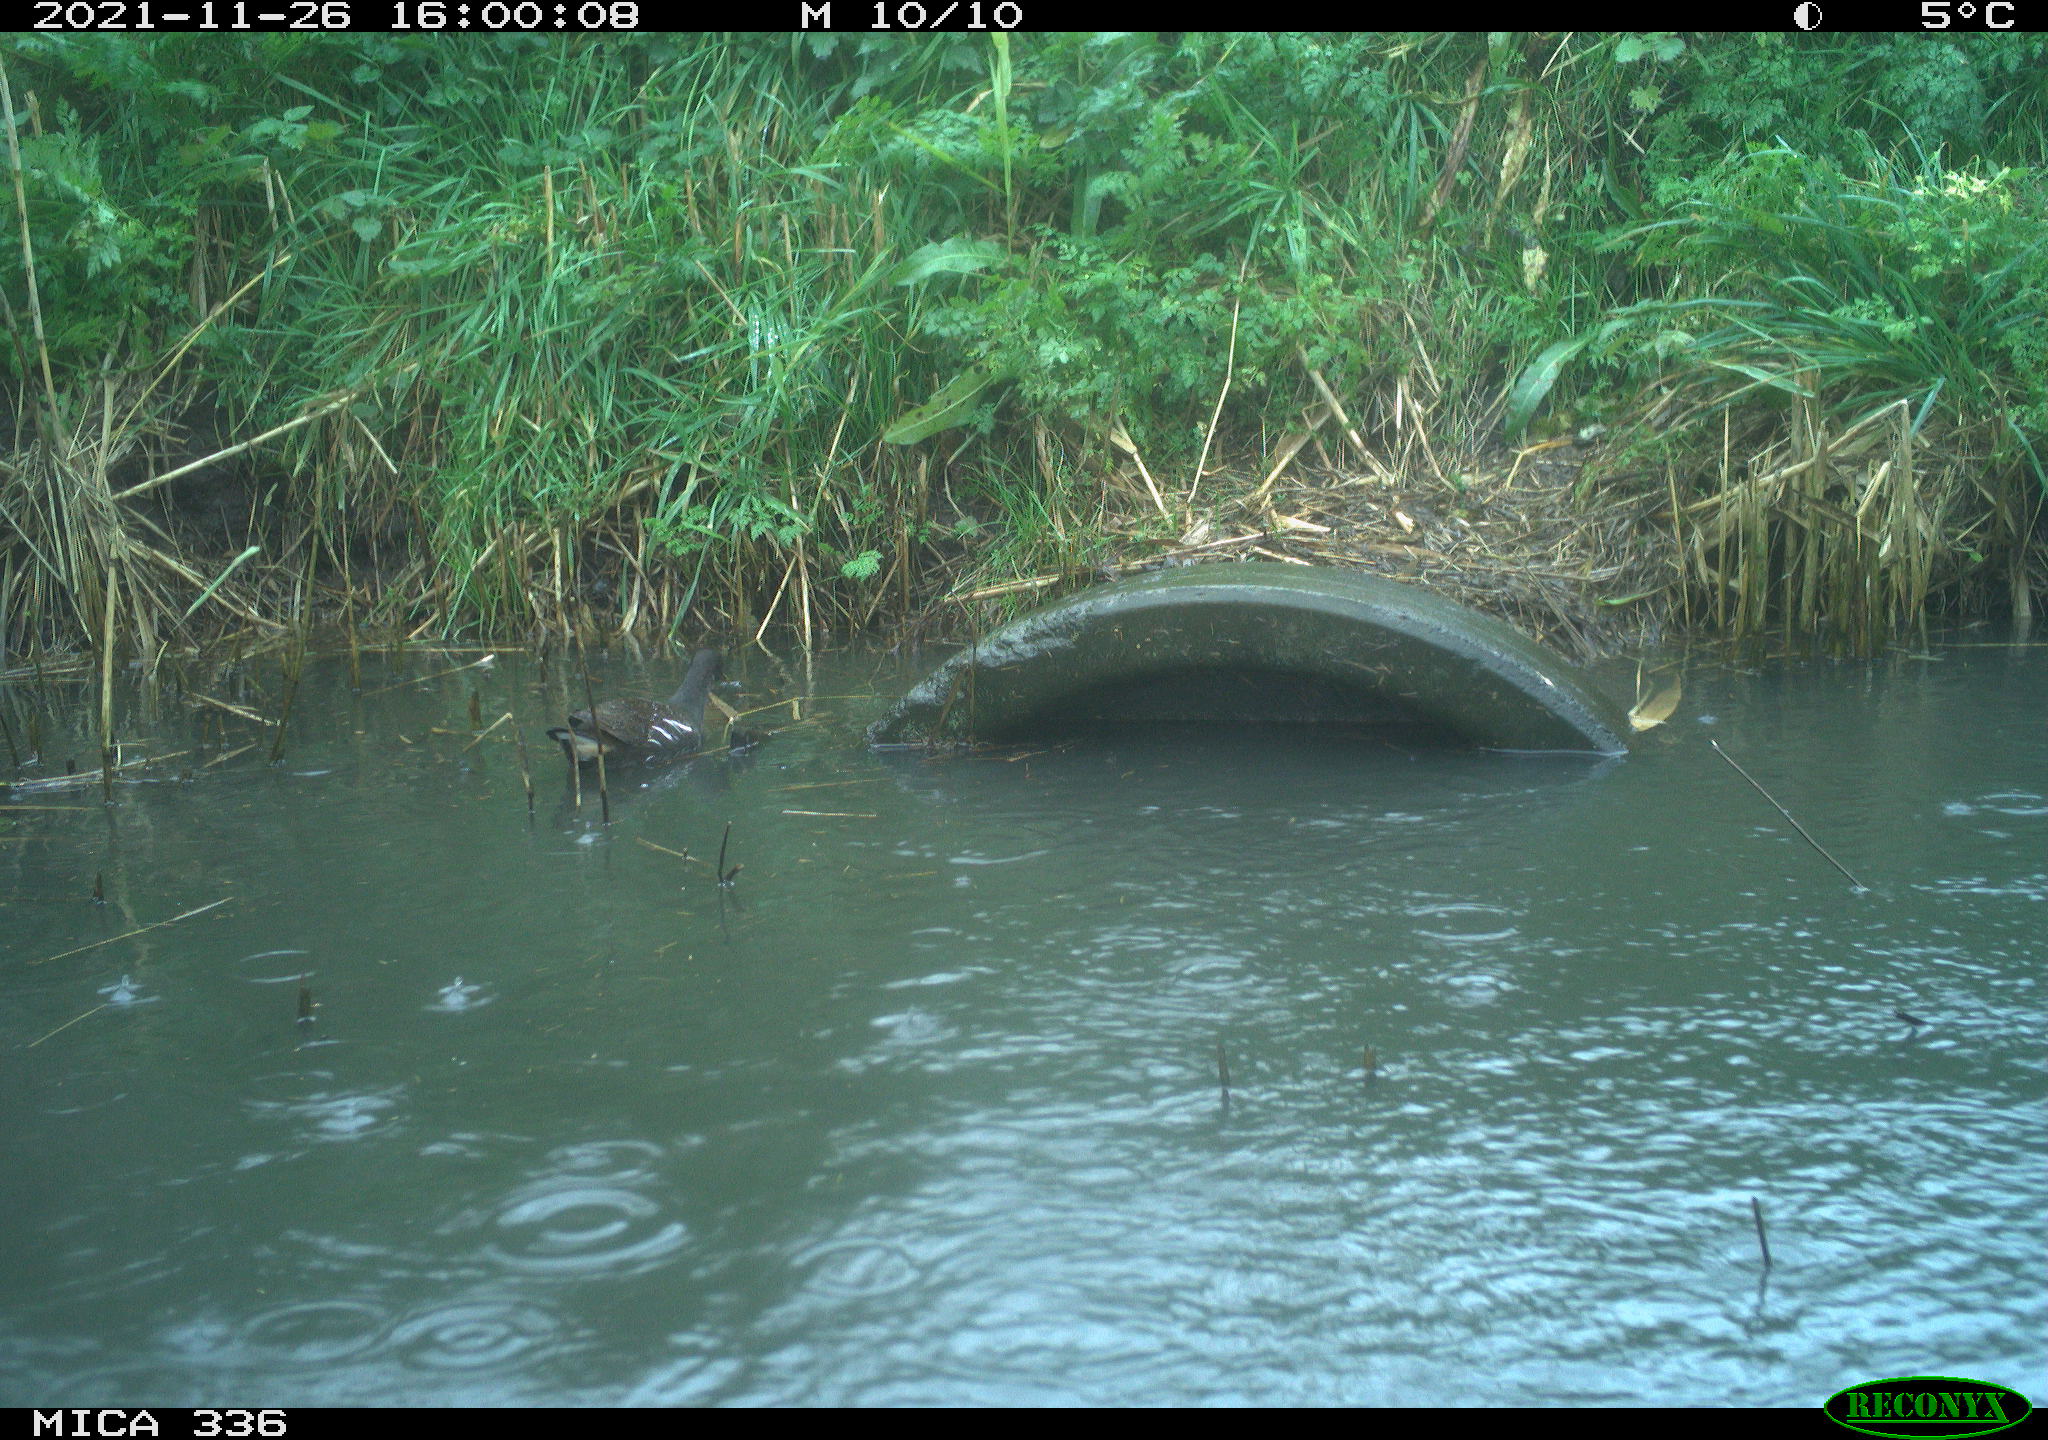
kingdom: Animalia
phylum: Chordata
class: Aves
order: Gruiformes
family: Rallidae
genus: Gallinula
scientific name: Gallinula chloropus
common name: Common moorhen
